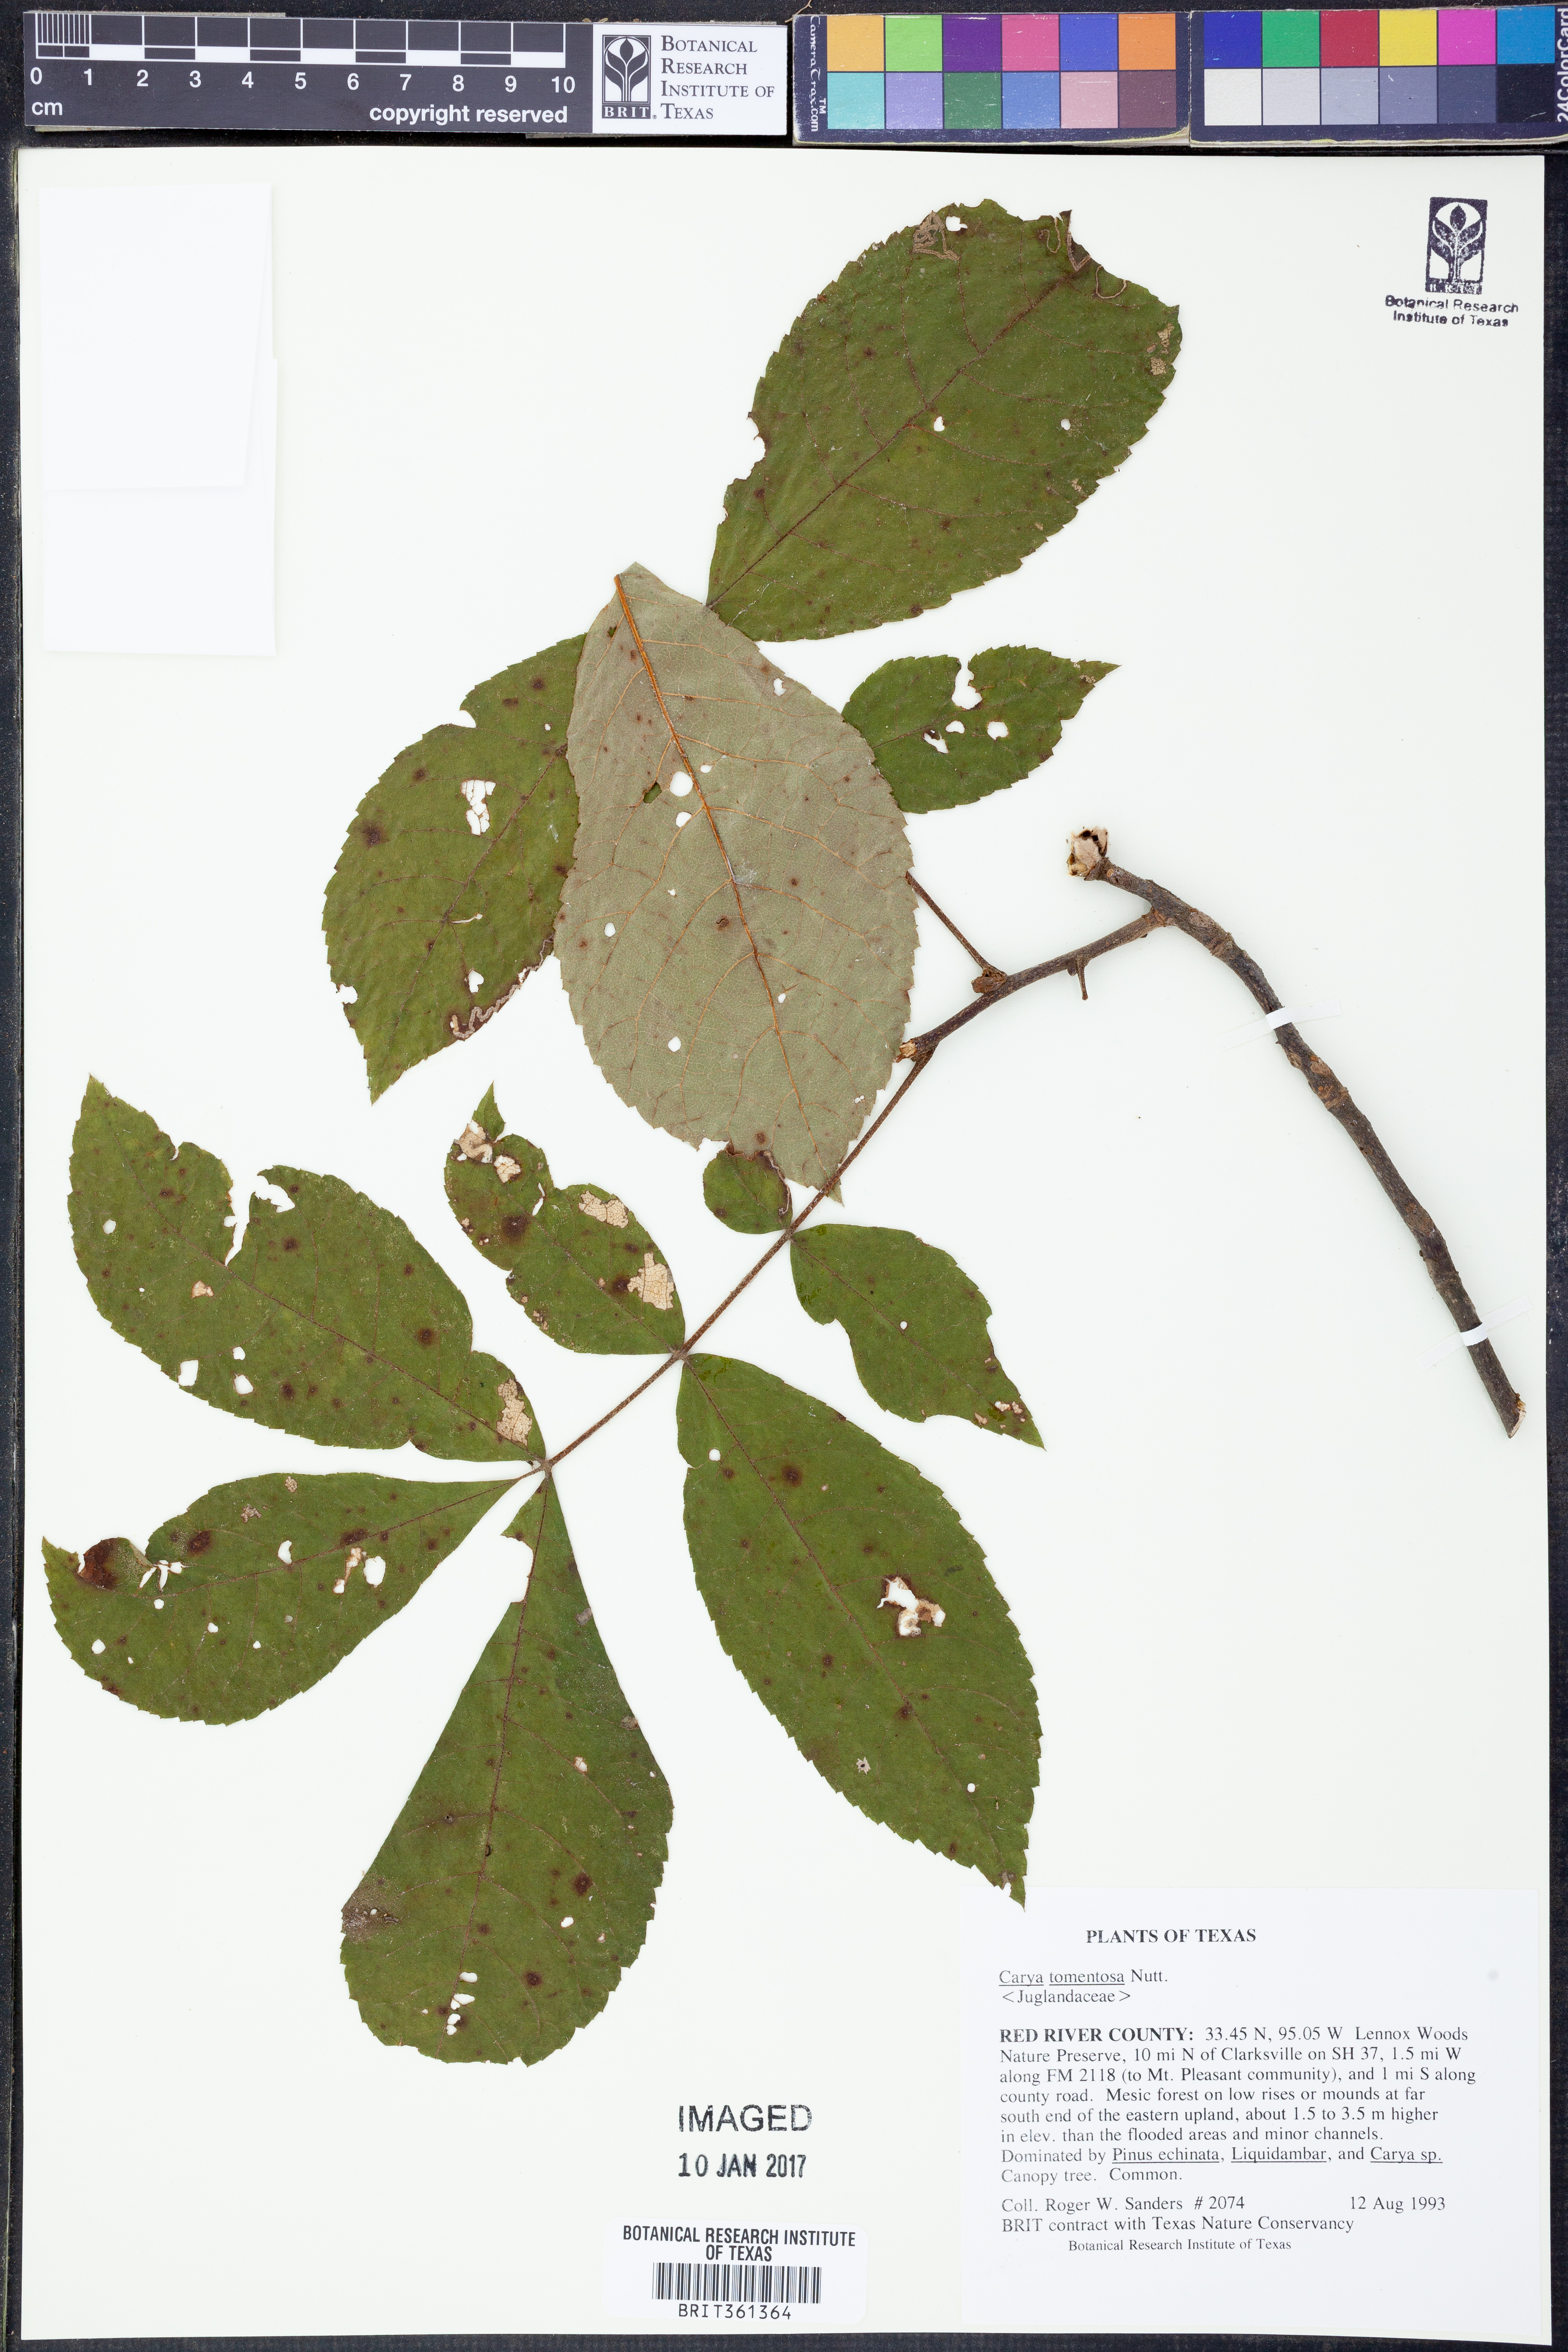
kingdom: Plantae
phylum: Tracheophyta
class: Magnoliopsida
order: Fagales
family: Juglandaceae
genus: Carya
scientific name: Carya alba
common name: Mockernut hickory
